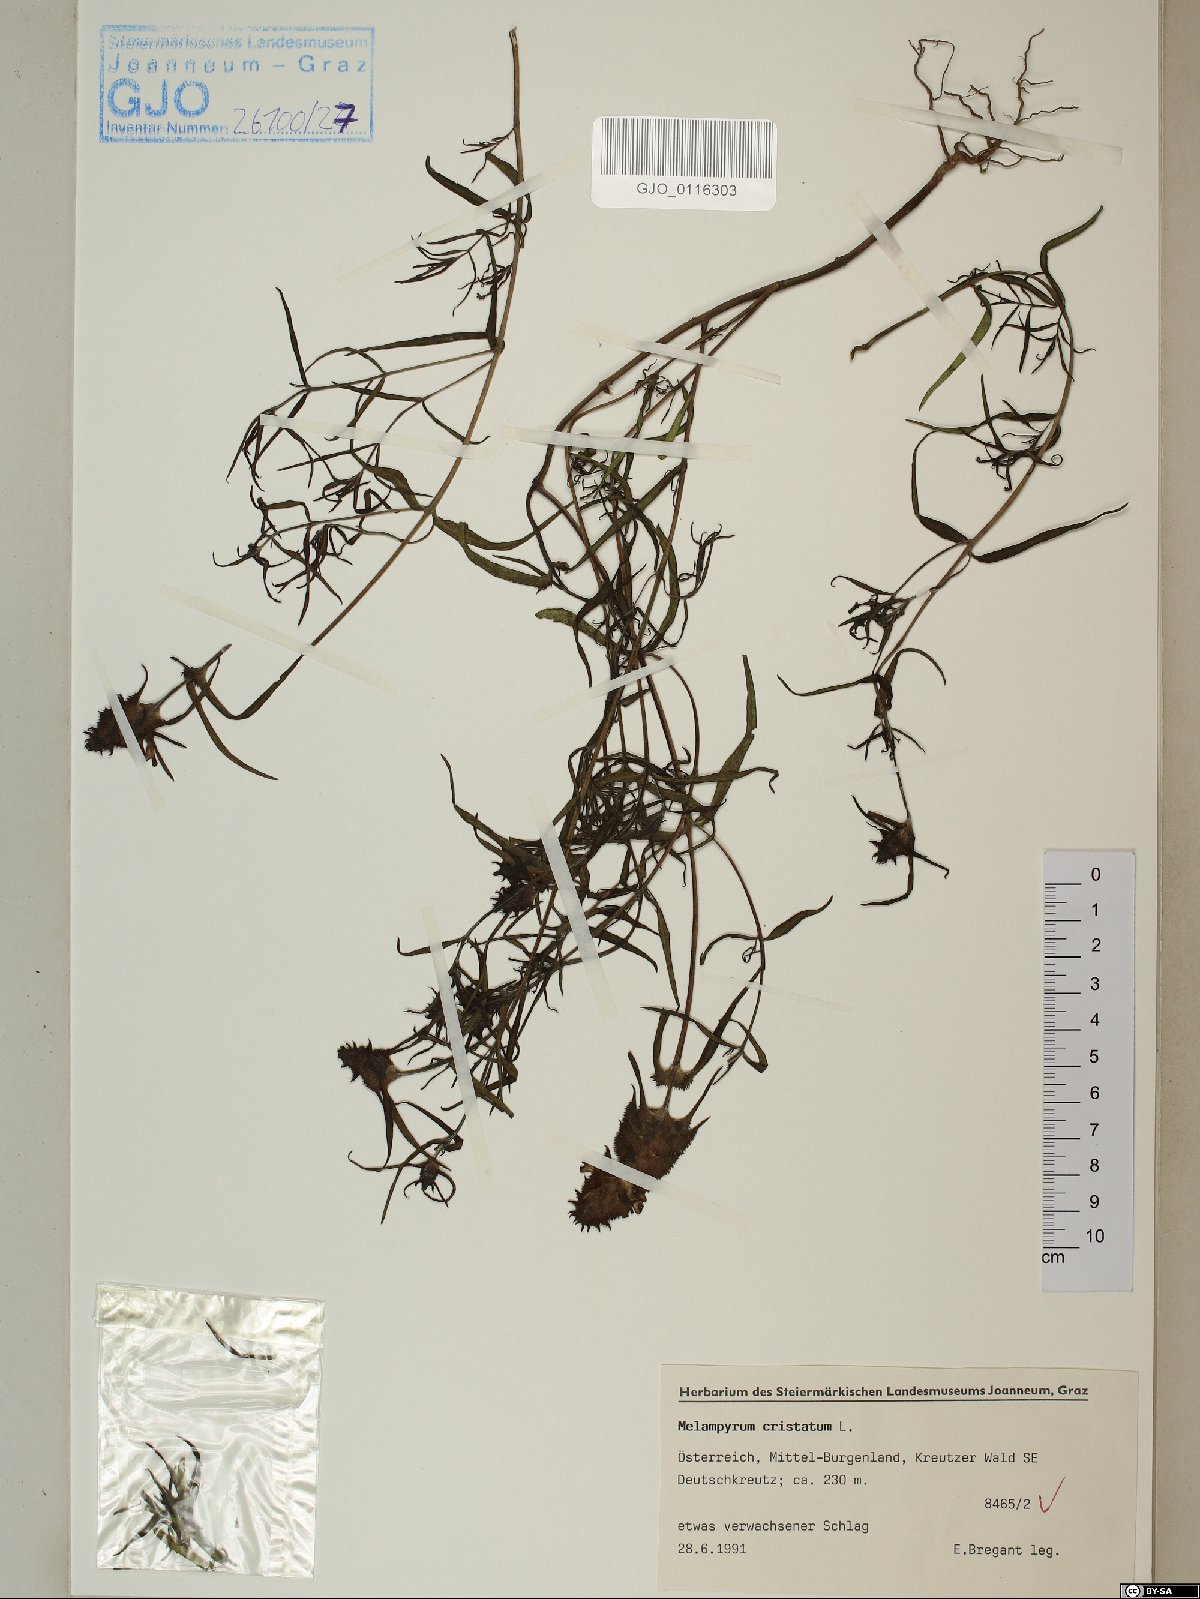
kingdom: Plantae
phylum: Tracheophyta
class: Magnoliopsida
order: Lamiales
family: Orobanchaceae
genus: Melampyrum
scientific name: Melampyrum cristatum
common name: Crested cow-wheat
